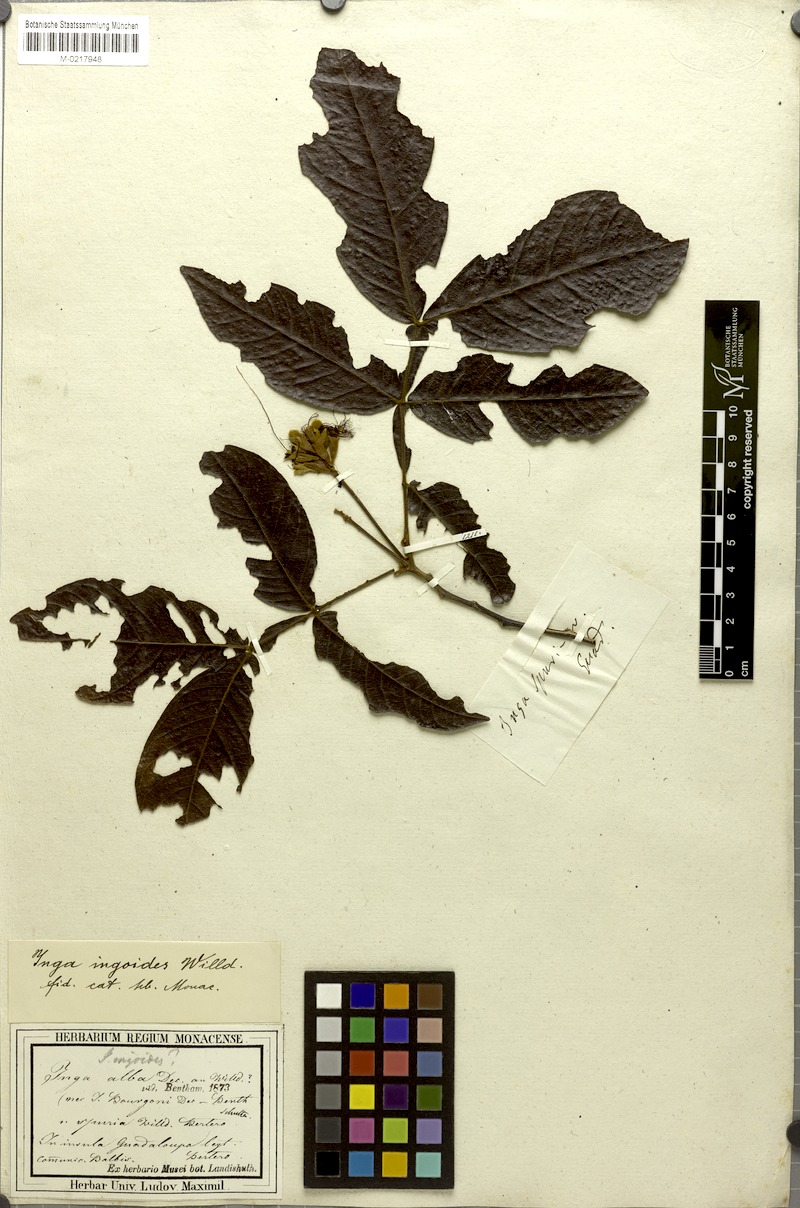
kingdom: Plantae
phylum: Tracheophyta
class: Magnoliopsida
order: Fabales
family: Fabaceae
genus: Inga
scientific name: Inga ingoides
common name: Spanish ash
